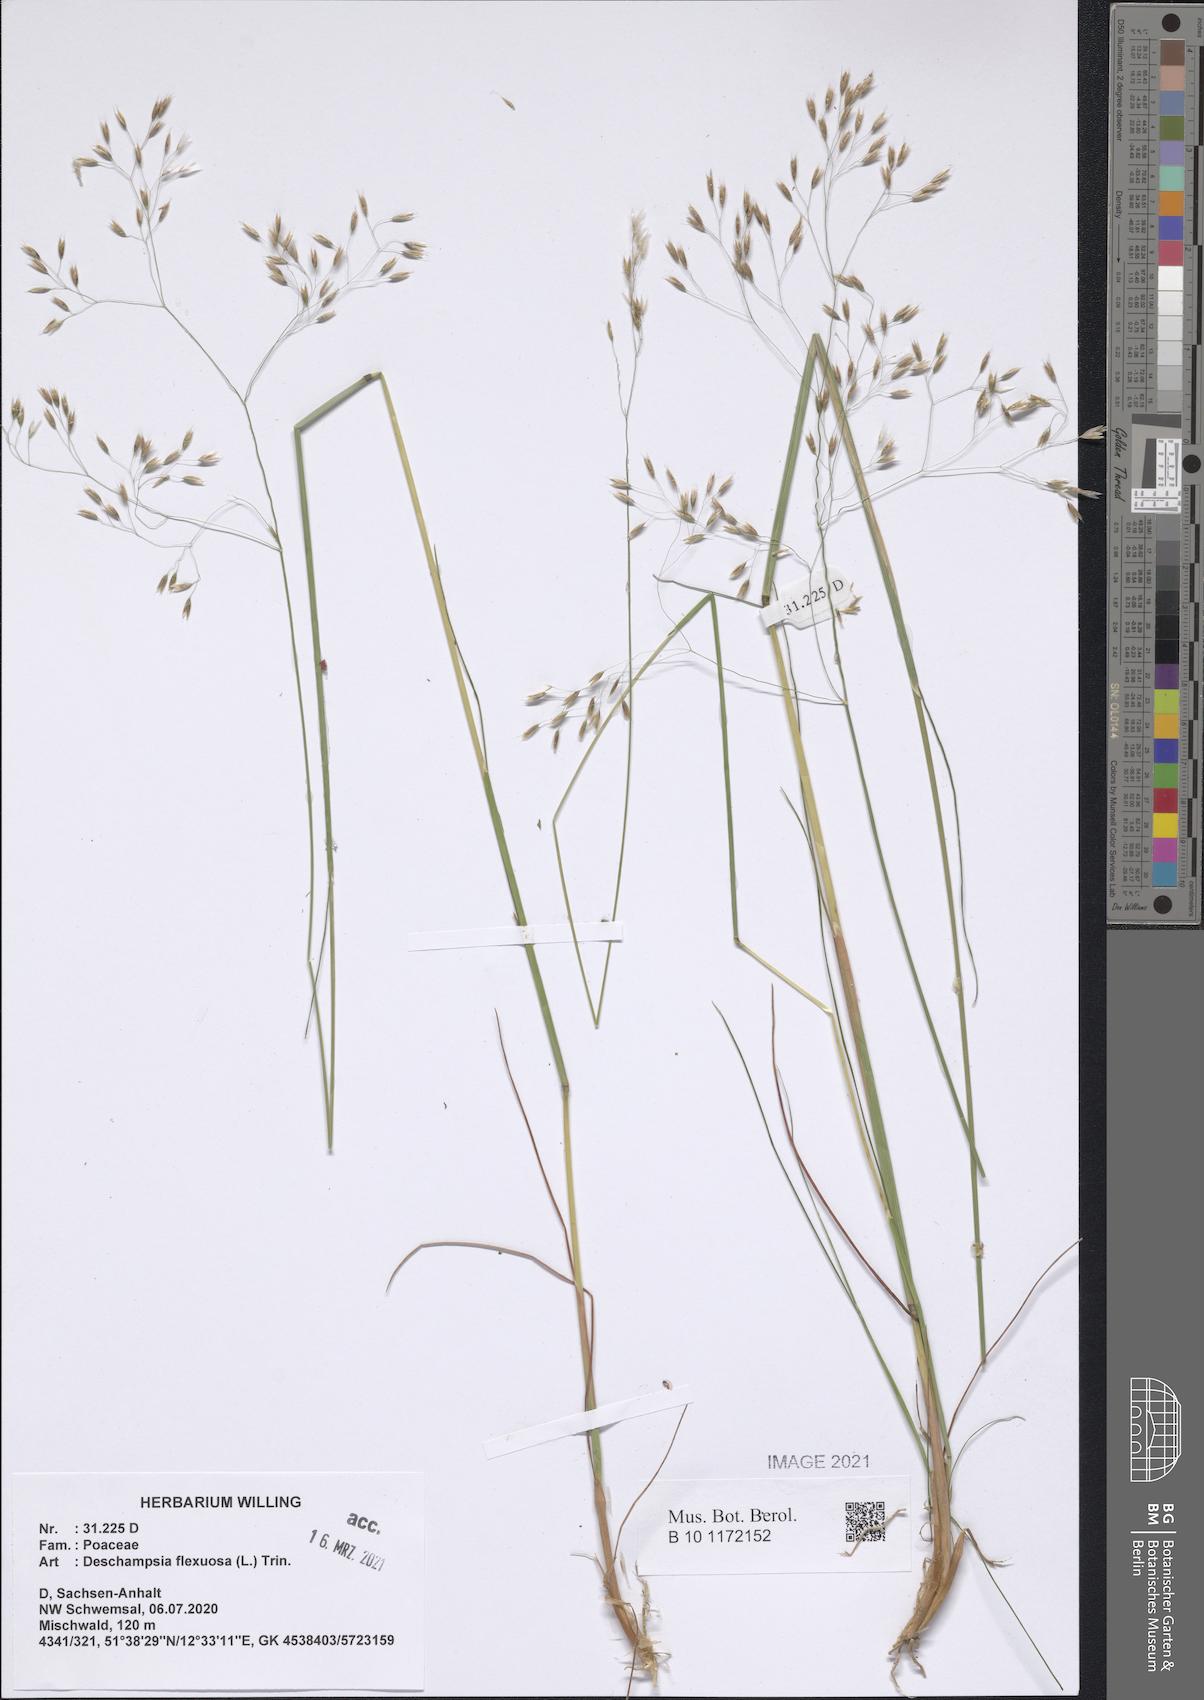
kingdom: Plantae
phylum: Tracheophyta
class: Liliopsida
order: Poales
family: Poaceae
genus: Avenella
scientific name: Avenella flexuosa
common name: Wavy hairgrass
